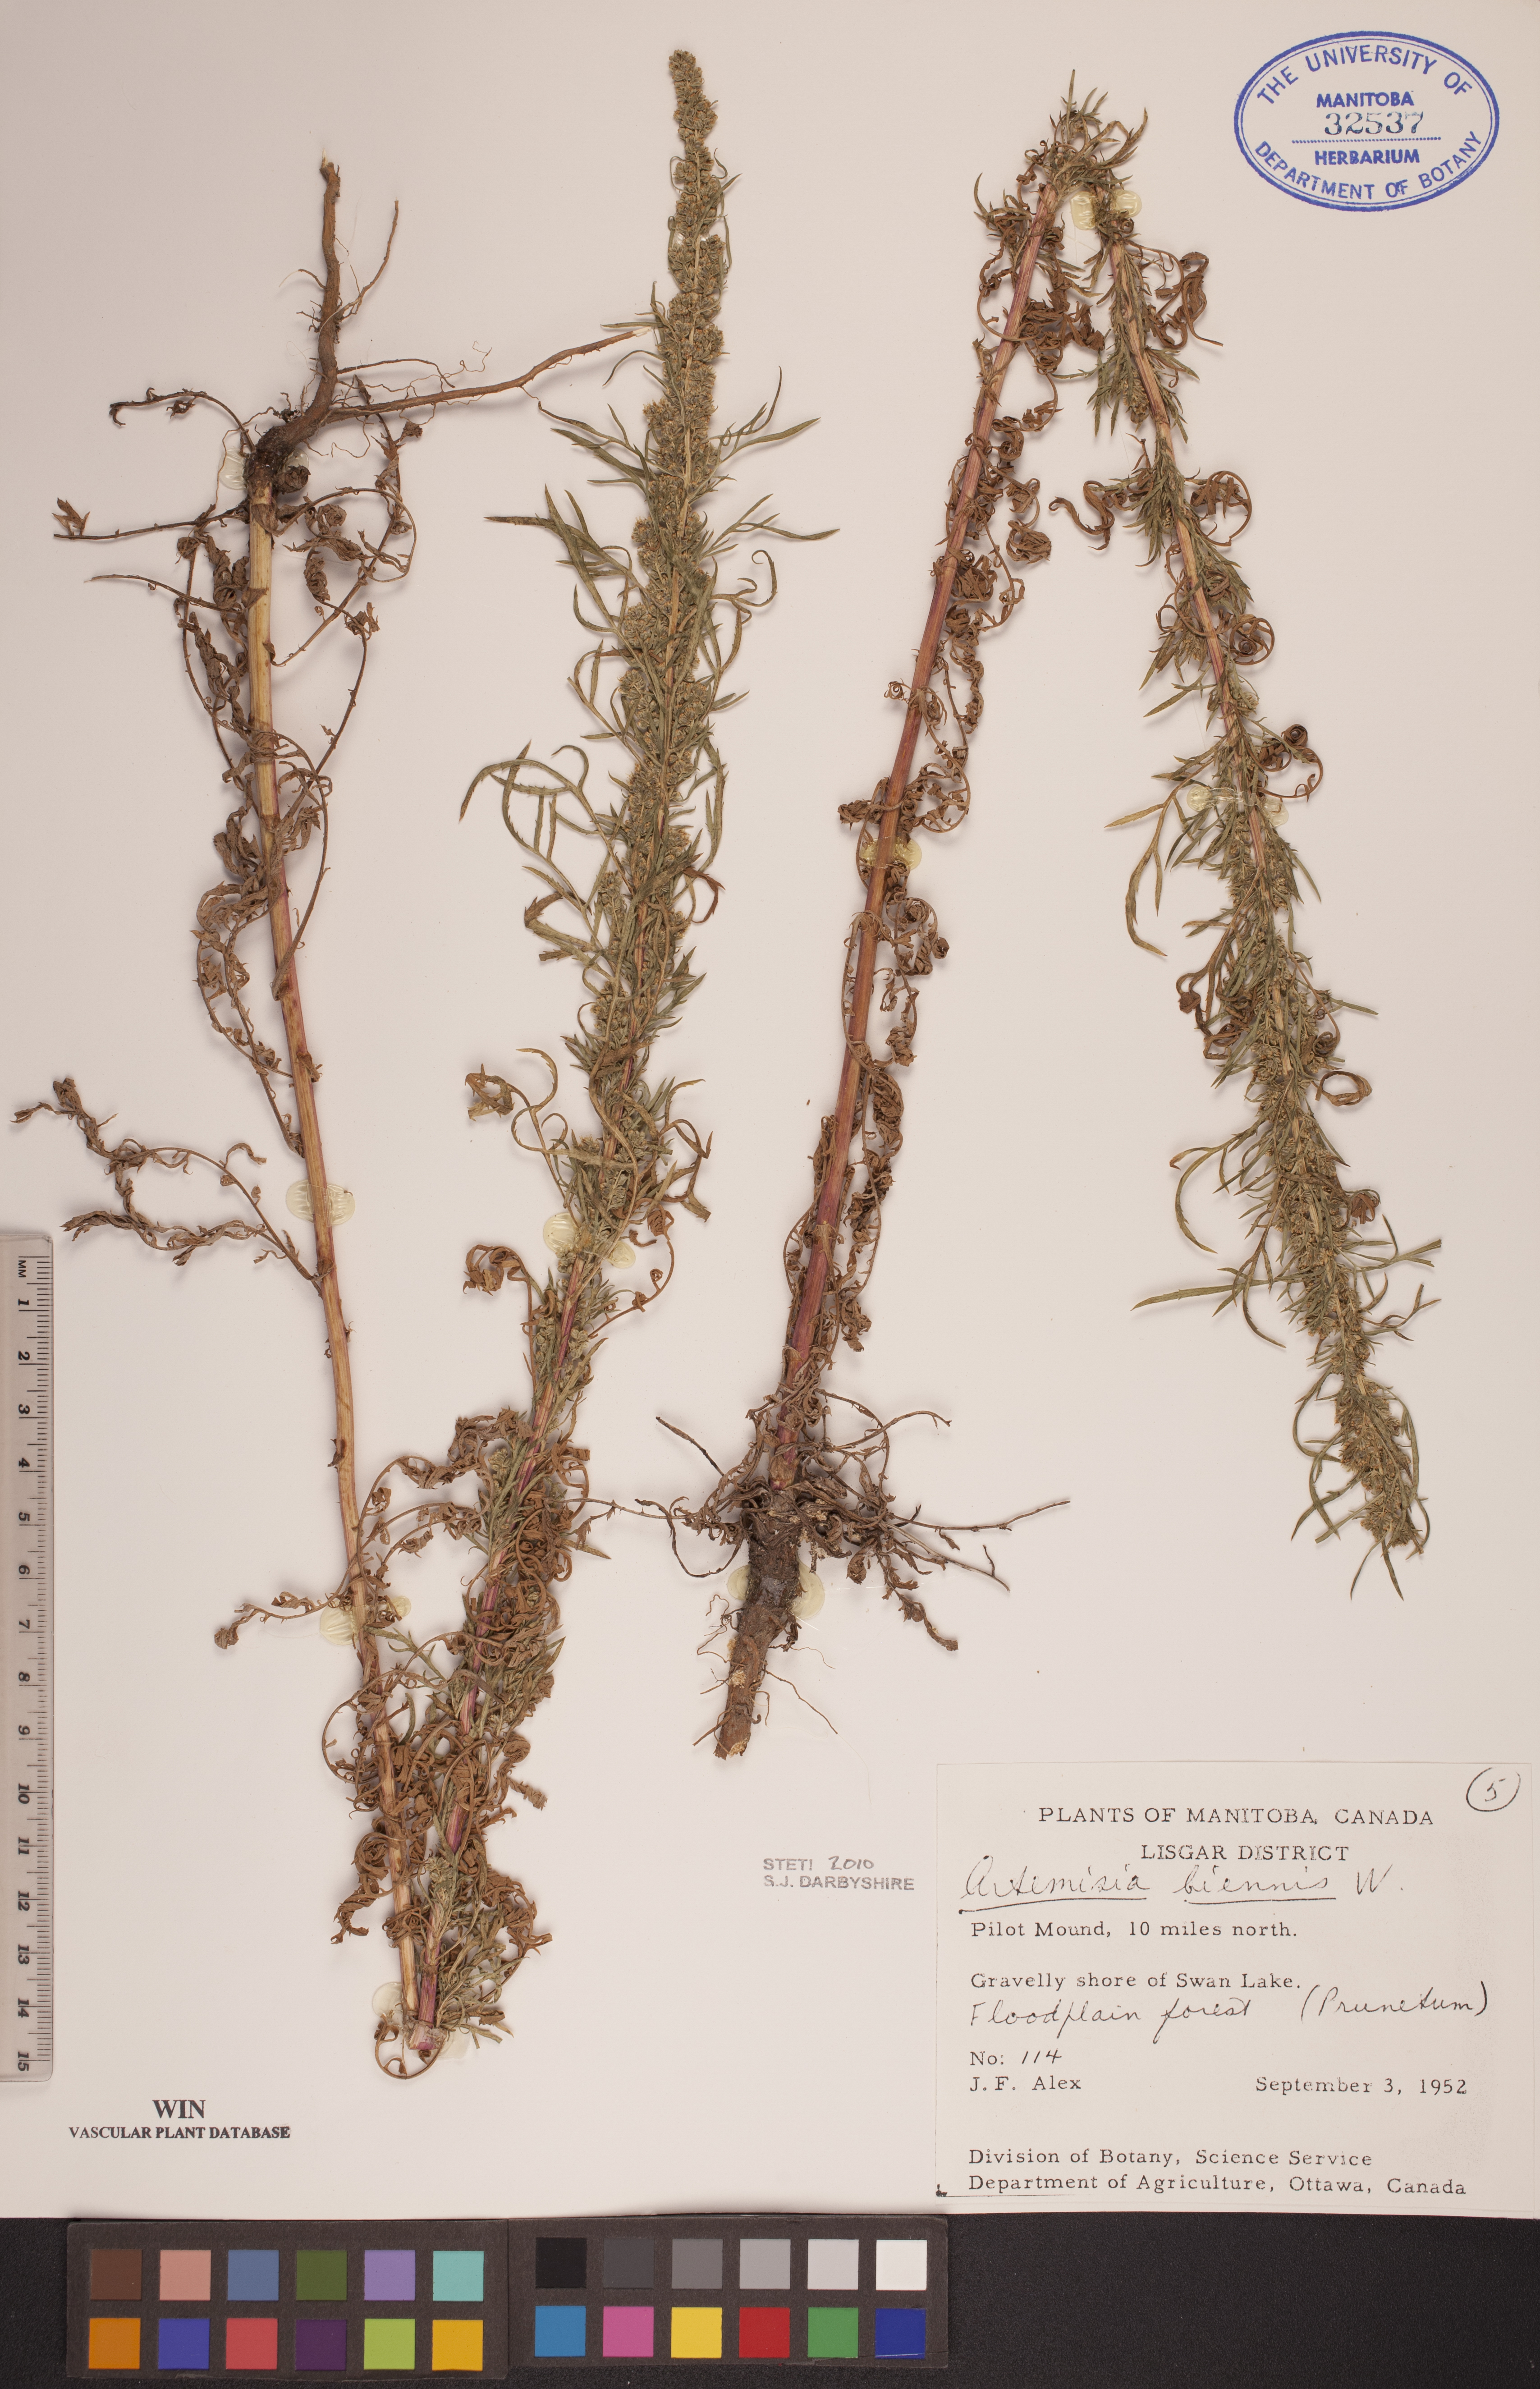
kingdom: Plantae
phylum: Tracheophyta
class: Magnoliopsida
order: Asterales
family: Asteraceae
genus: Artemisia
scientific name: Artemisia biennis
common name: Biennial wormwood
